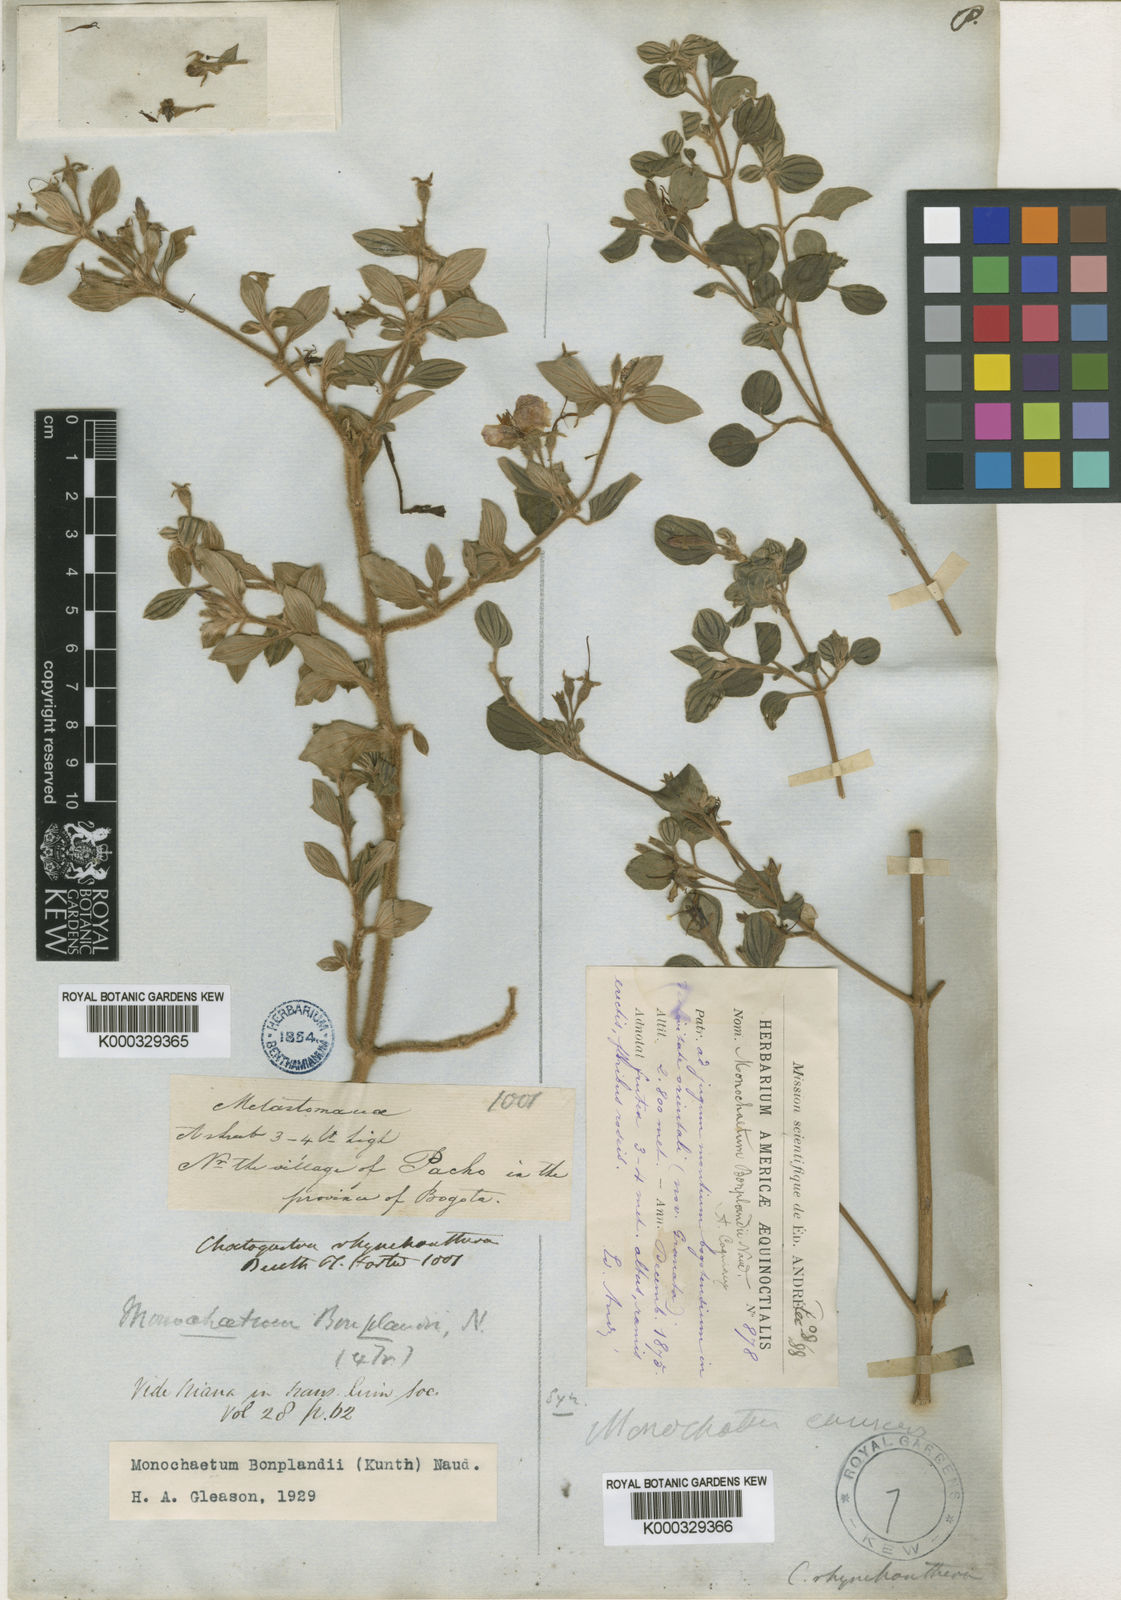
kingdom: Plantae
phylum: Tracheophyta
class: Magnoliopsida
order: Myrtales
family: Melastomataceae
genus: Monochaetum
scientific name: Monochaetum bonplandii
